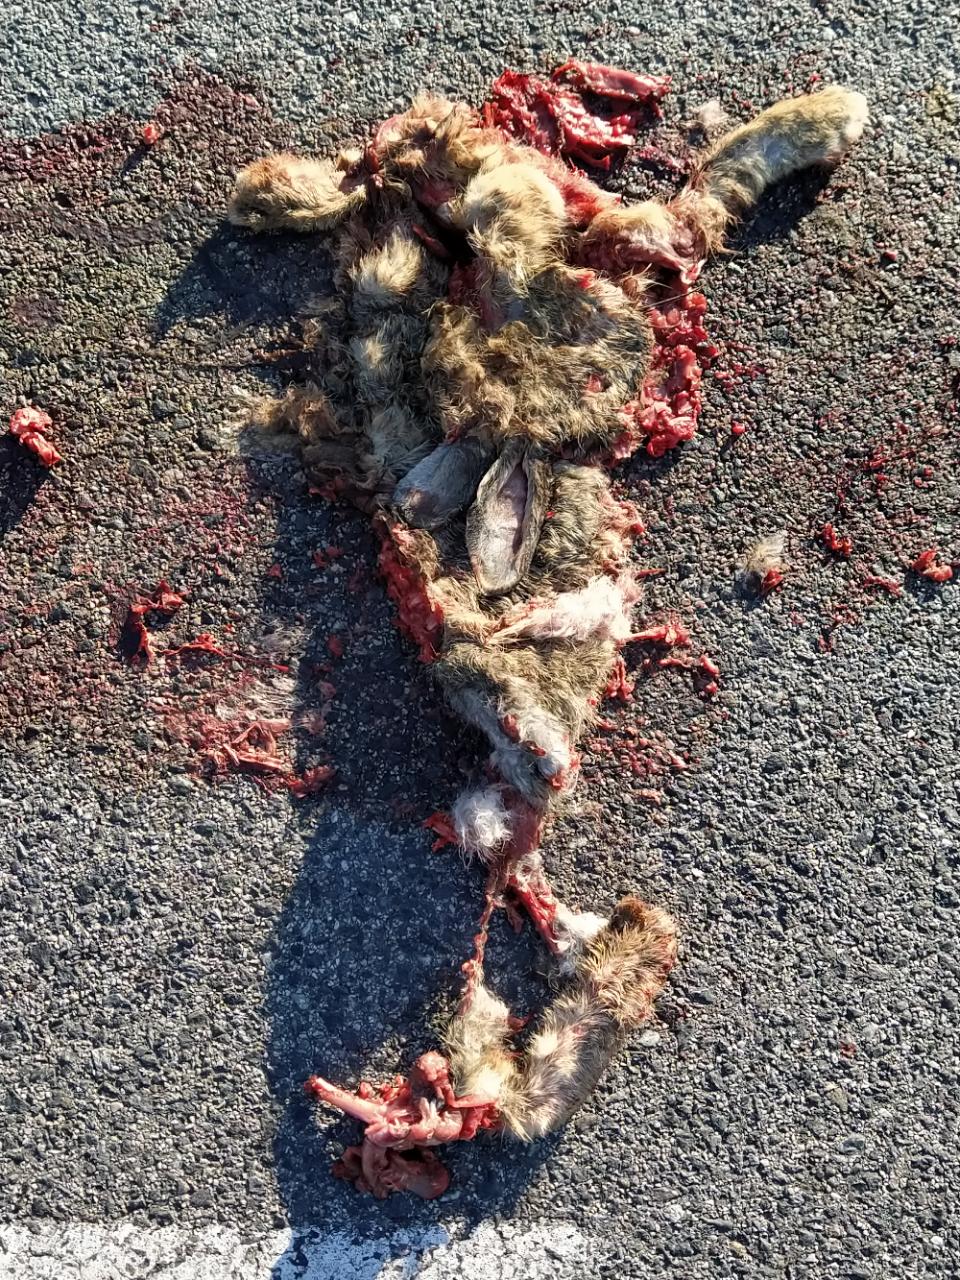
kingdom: Animalia
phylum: Chordata
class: Mammalia
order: Lagomorpha
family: Leporidae
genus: Lepus
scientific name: Lepus europaeus
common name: European hare
